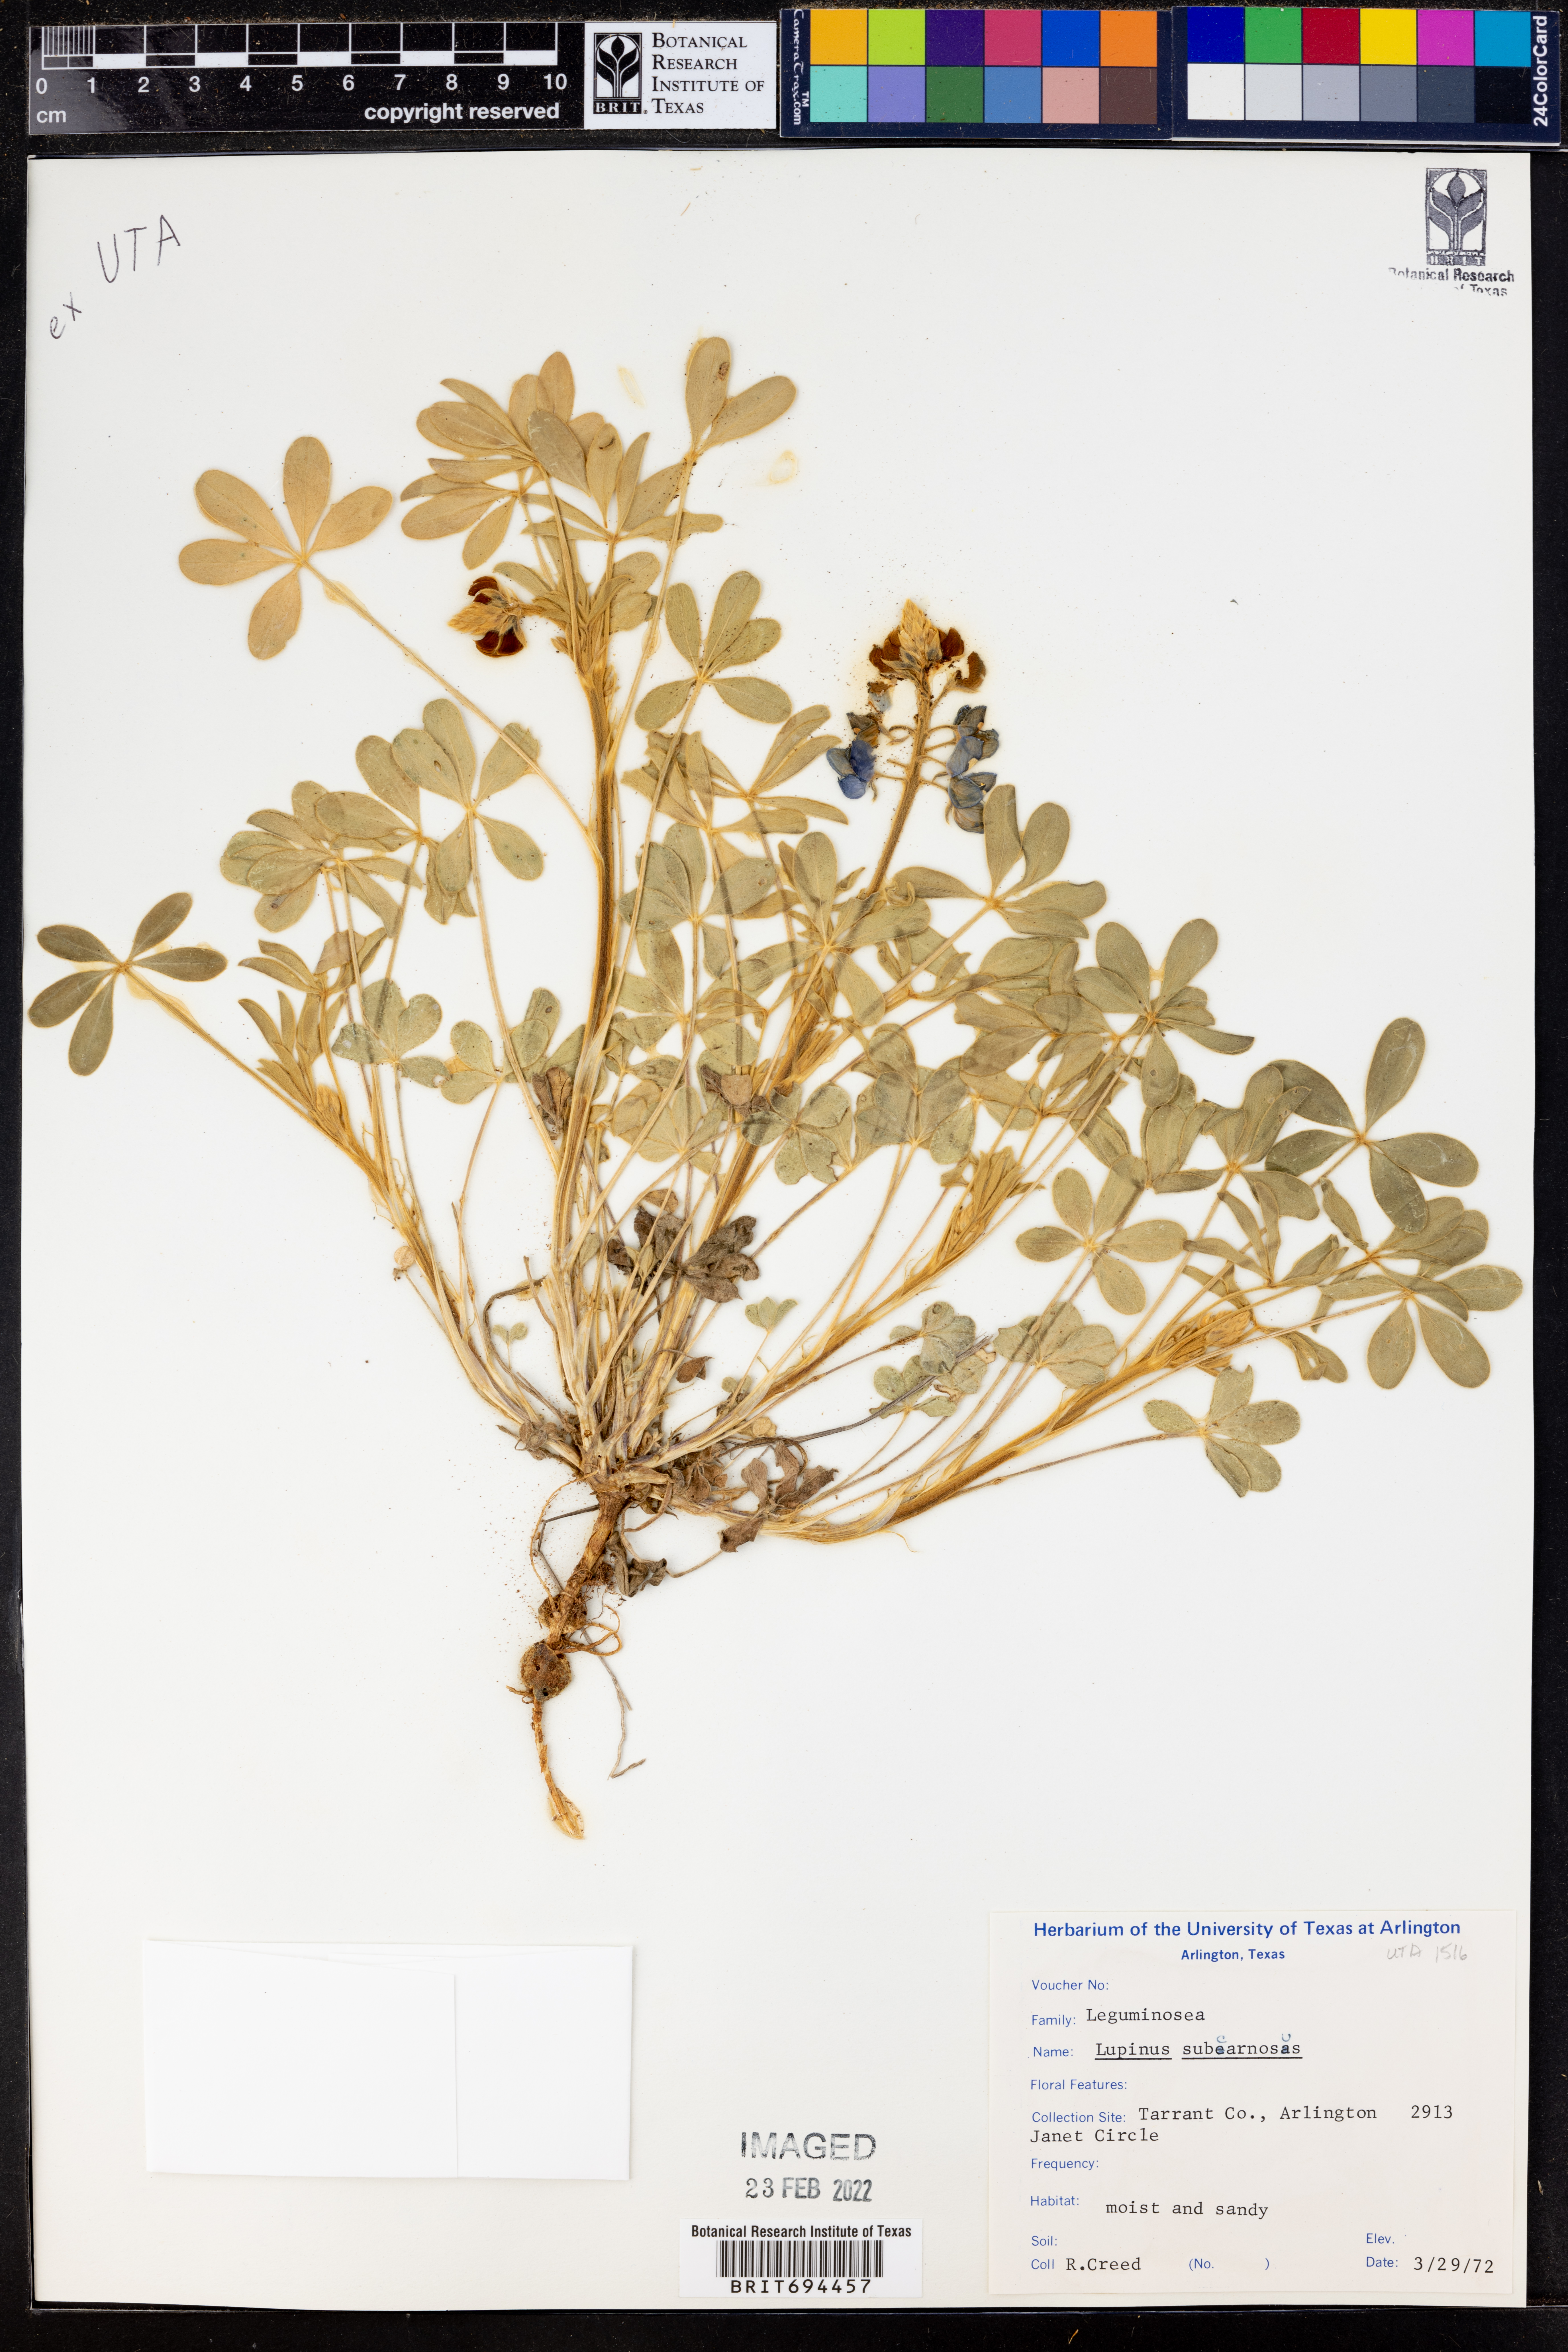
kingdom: Plantae
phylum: Tracheophyta
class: Magnoliopsida
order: Fabales
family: Fabaceae
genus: Lupinus
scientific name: Lupinus subcarnosus
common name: Texas bluebonnet
